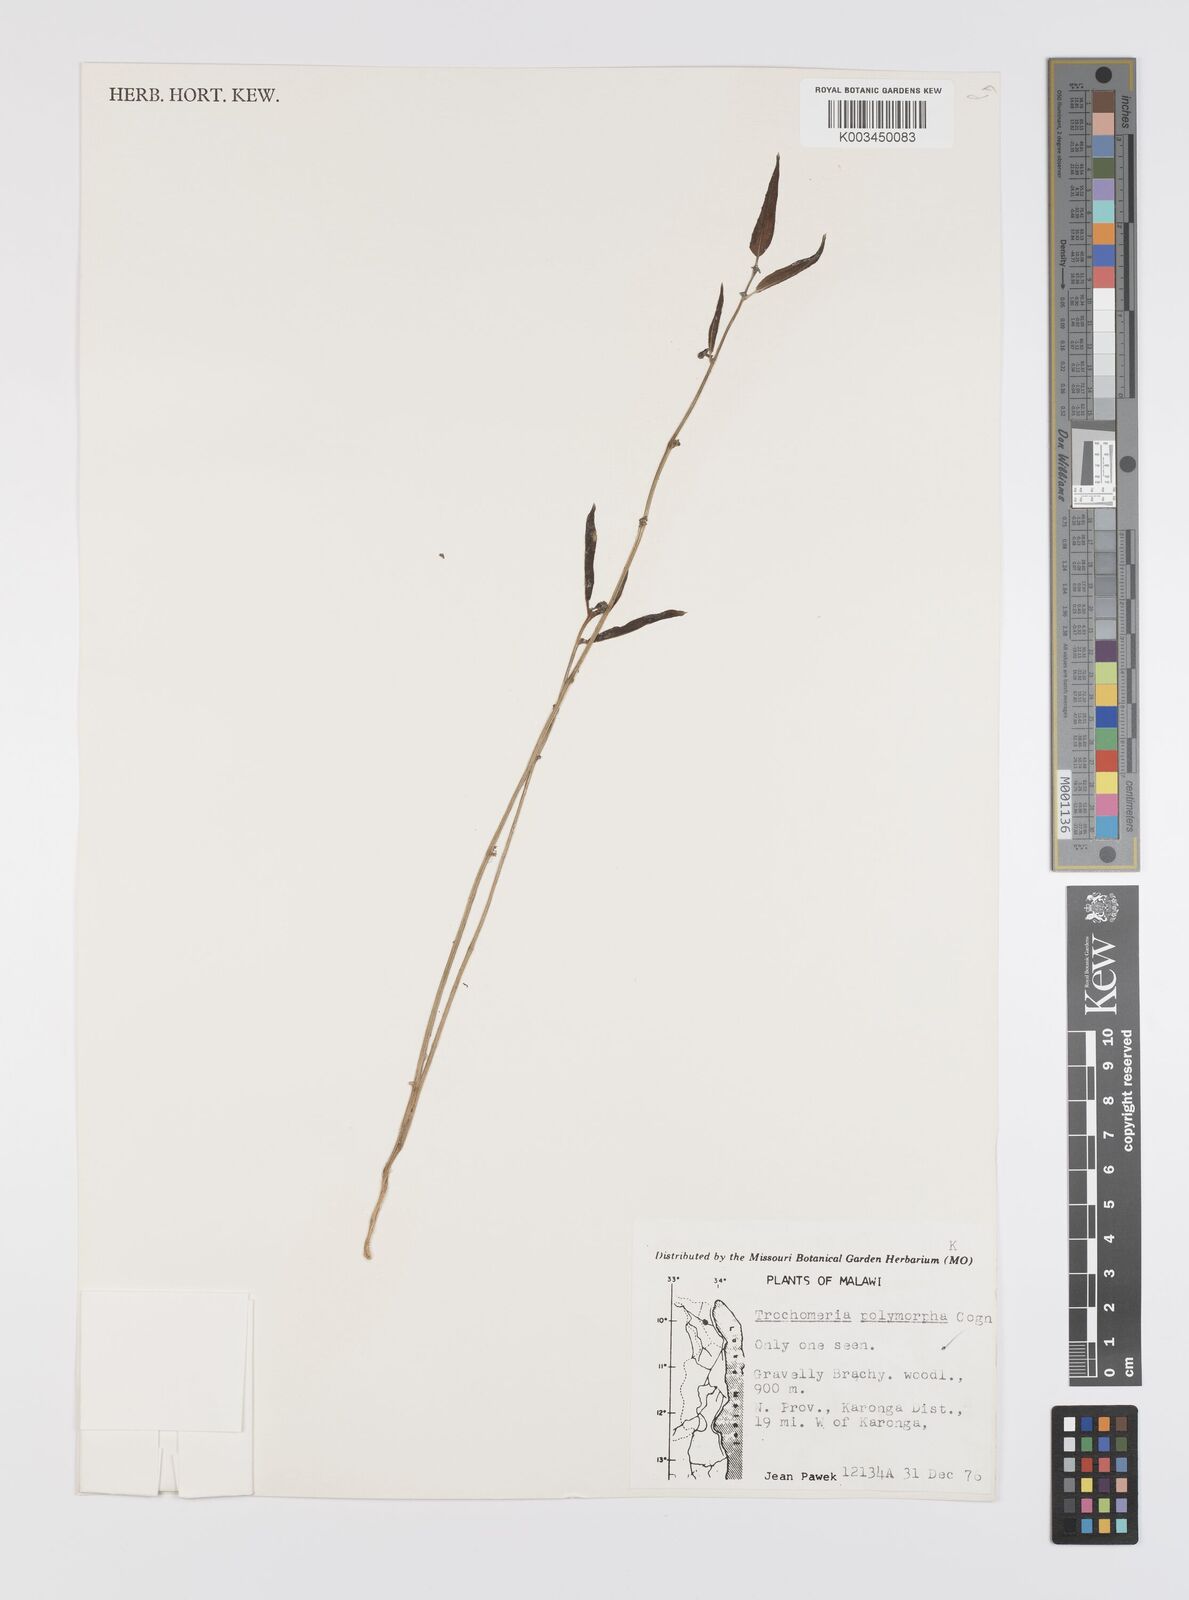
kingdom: Plantae
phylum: Tracheophyta
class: Magnoliopsida
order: Cucurbitales
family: Cucurbitaceae
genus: Trochomeria
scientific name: Trochomeria polymorpha
